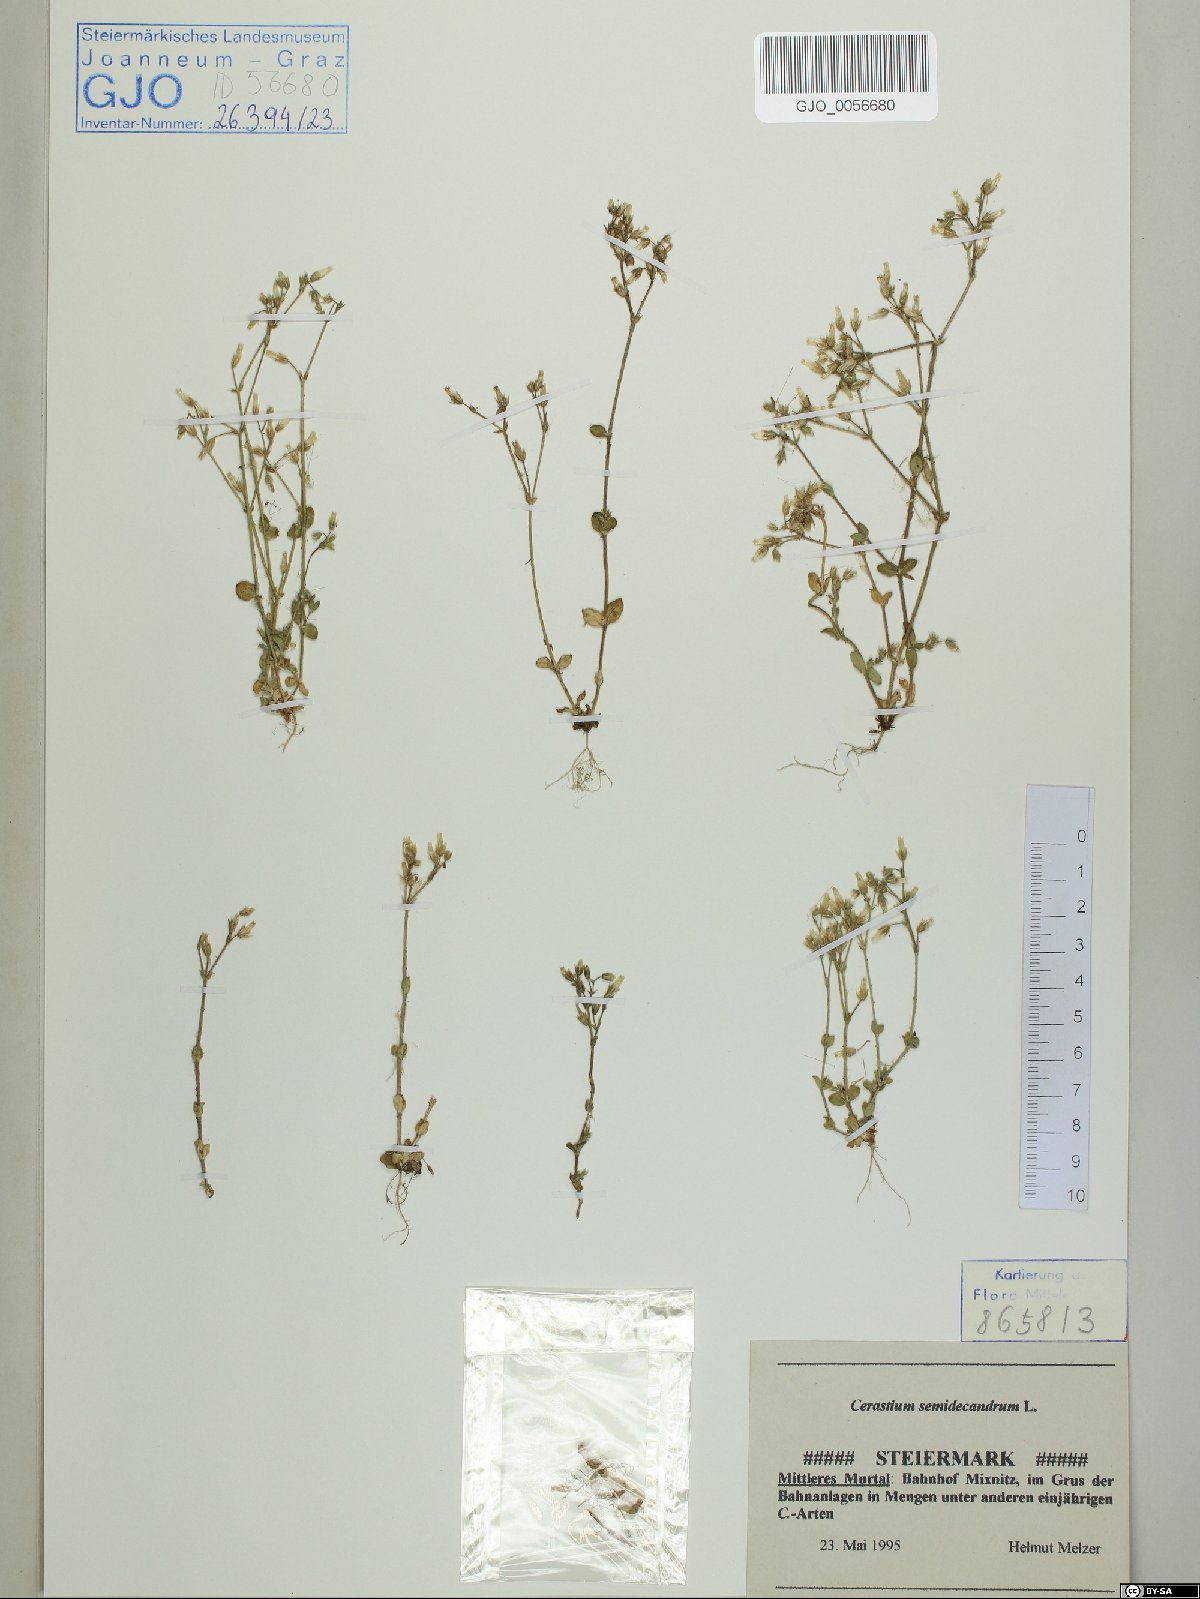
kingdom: Plantae
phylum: Tracheophyta
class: Magnoliopsida
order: Caryophyllales
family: Caryophyllaceae
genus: Cerastium
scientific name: Cerastium semidecandrum
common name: Little mouse-ear
